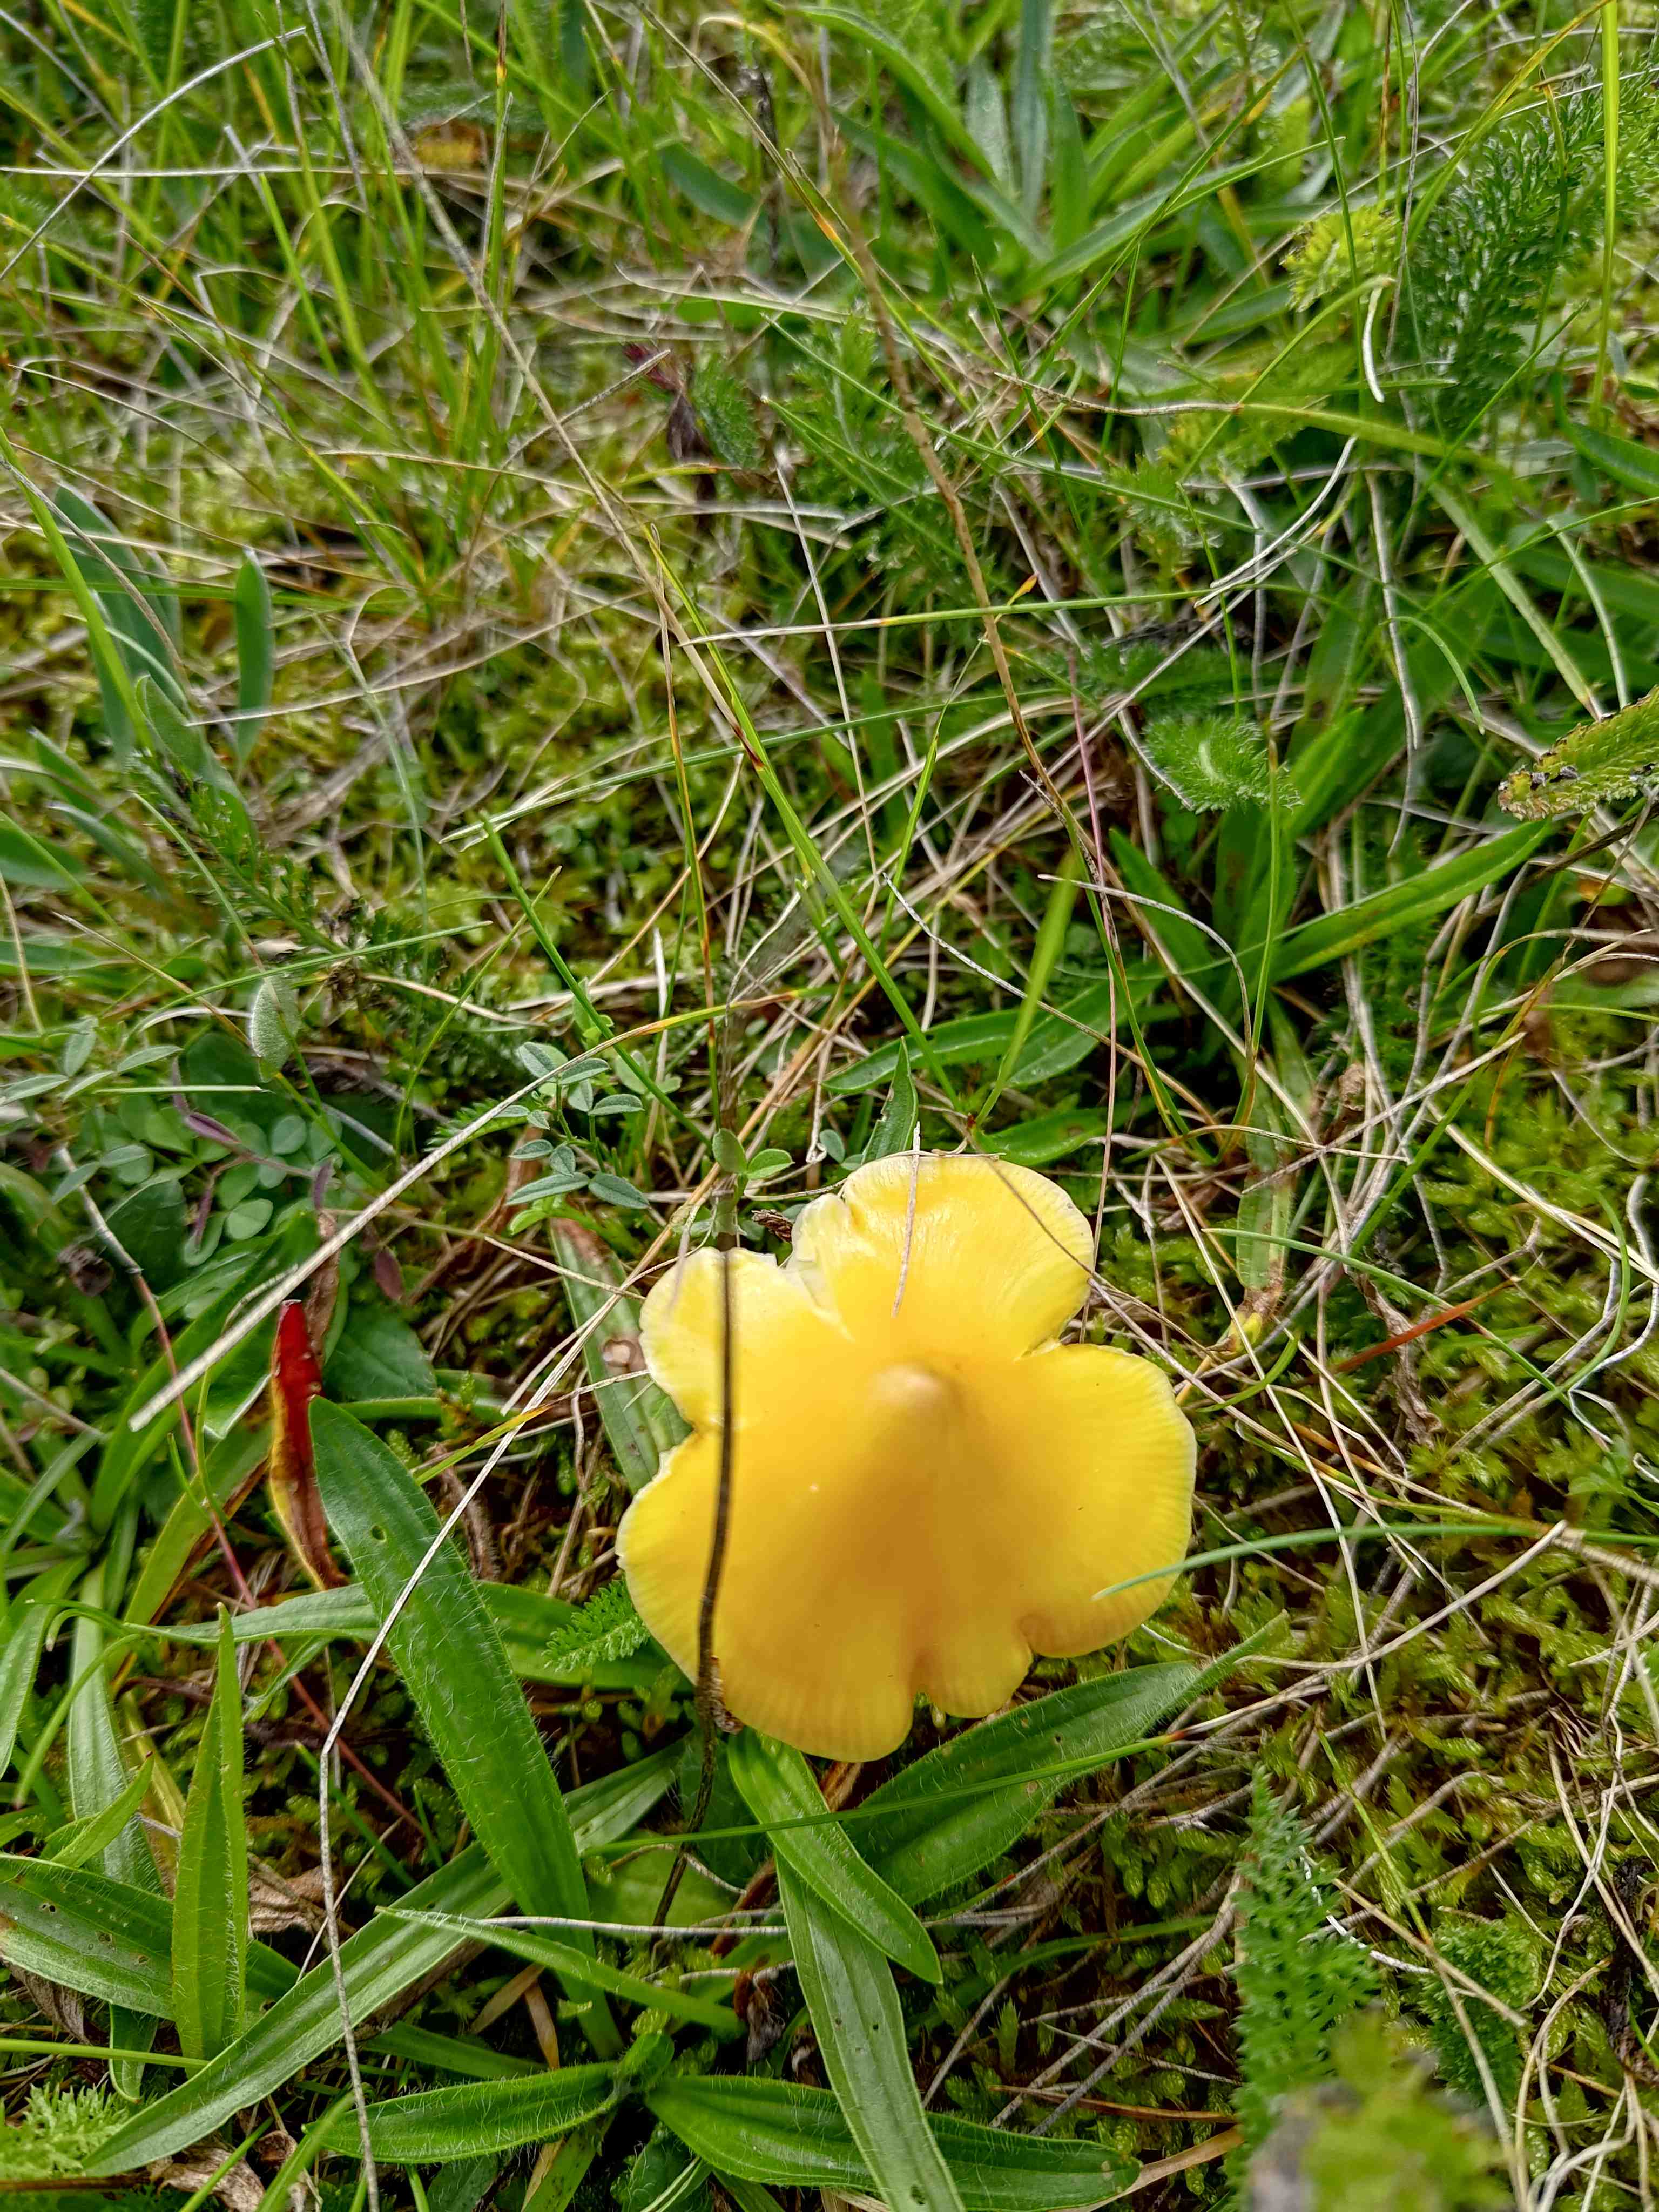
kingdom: Fungi
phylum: Basidiomycota
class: Agaricomycetes
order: Agaricales
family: Hygrophoraceae
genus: Hygrocybe
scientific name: Hygrocybe
